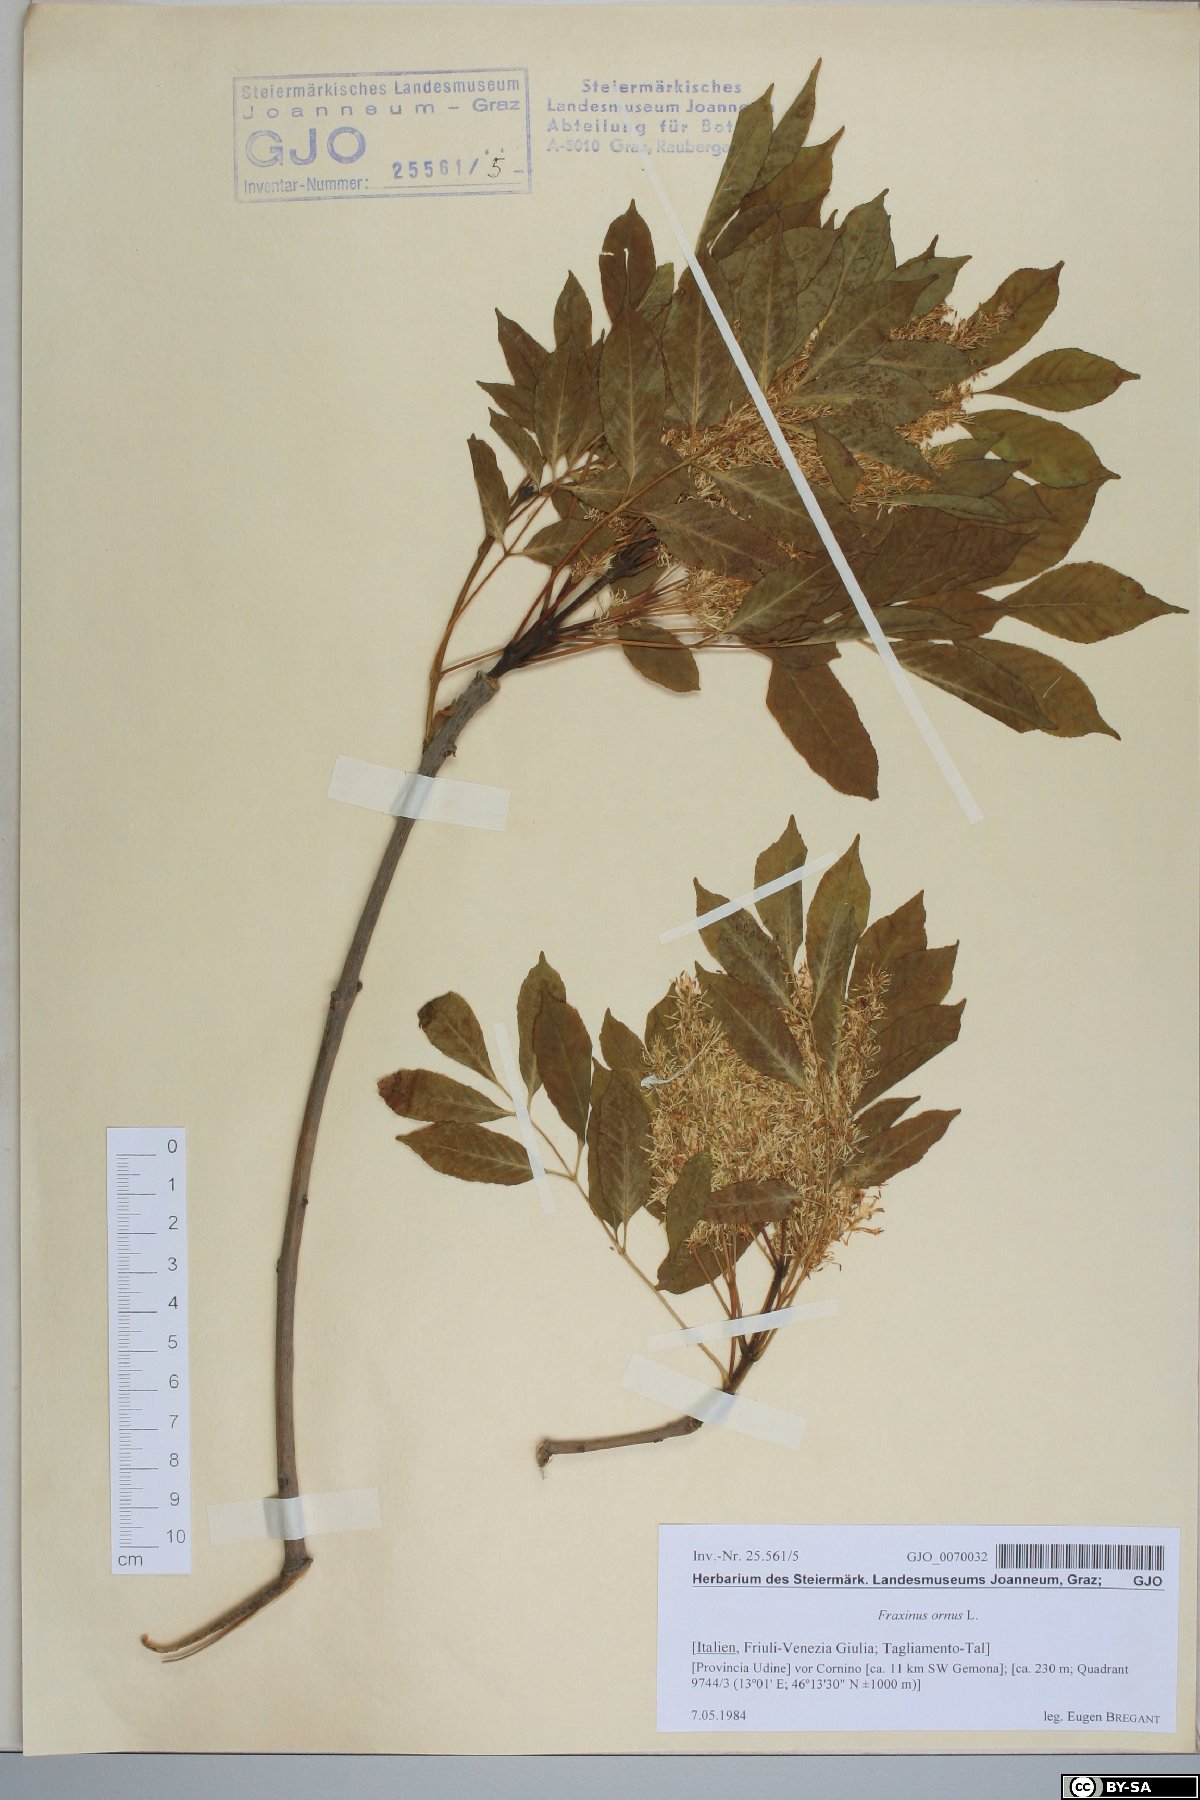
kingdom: Plantae
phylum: Tracheophyta
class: Magnoliopsida
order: Lamiales
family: Oleaceae
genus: Fraxinus
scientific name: Fraxinus ornus
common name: Manna ash
